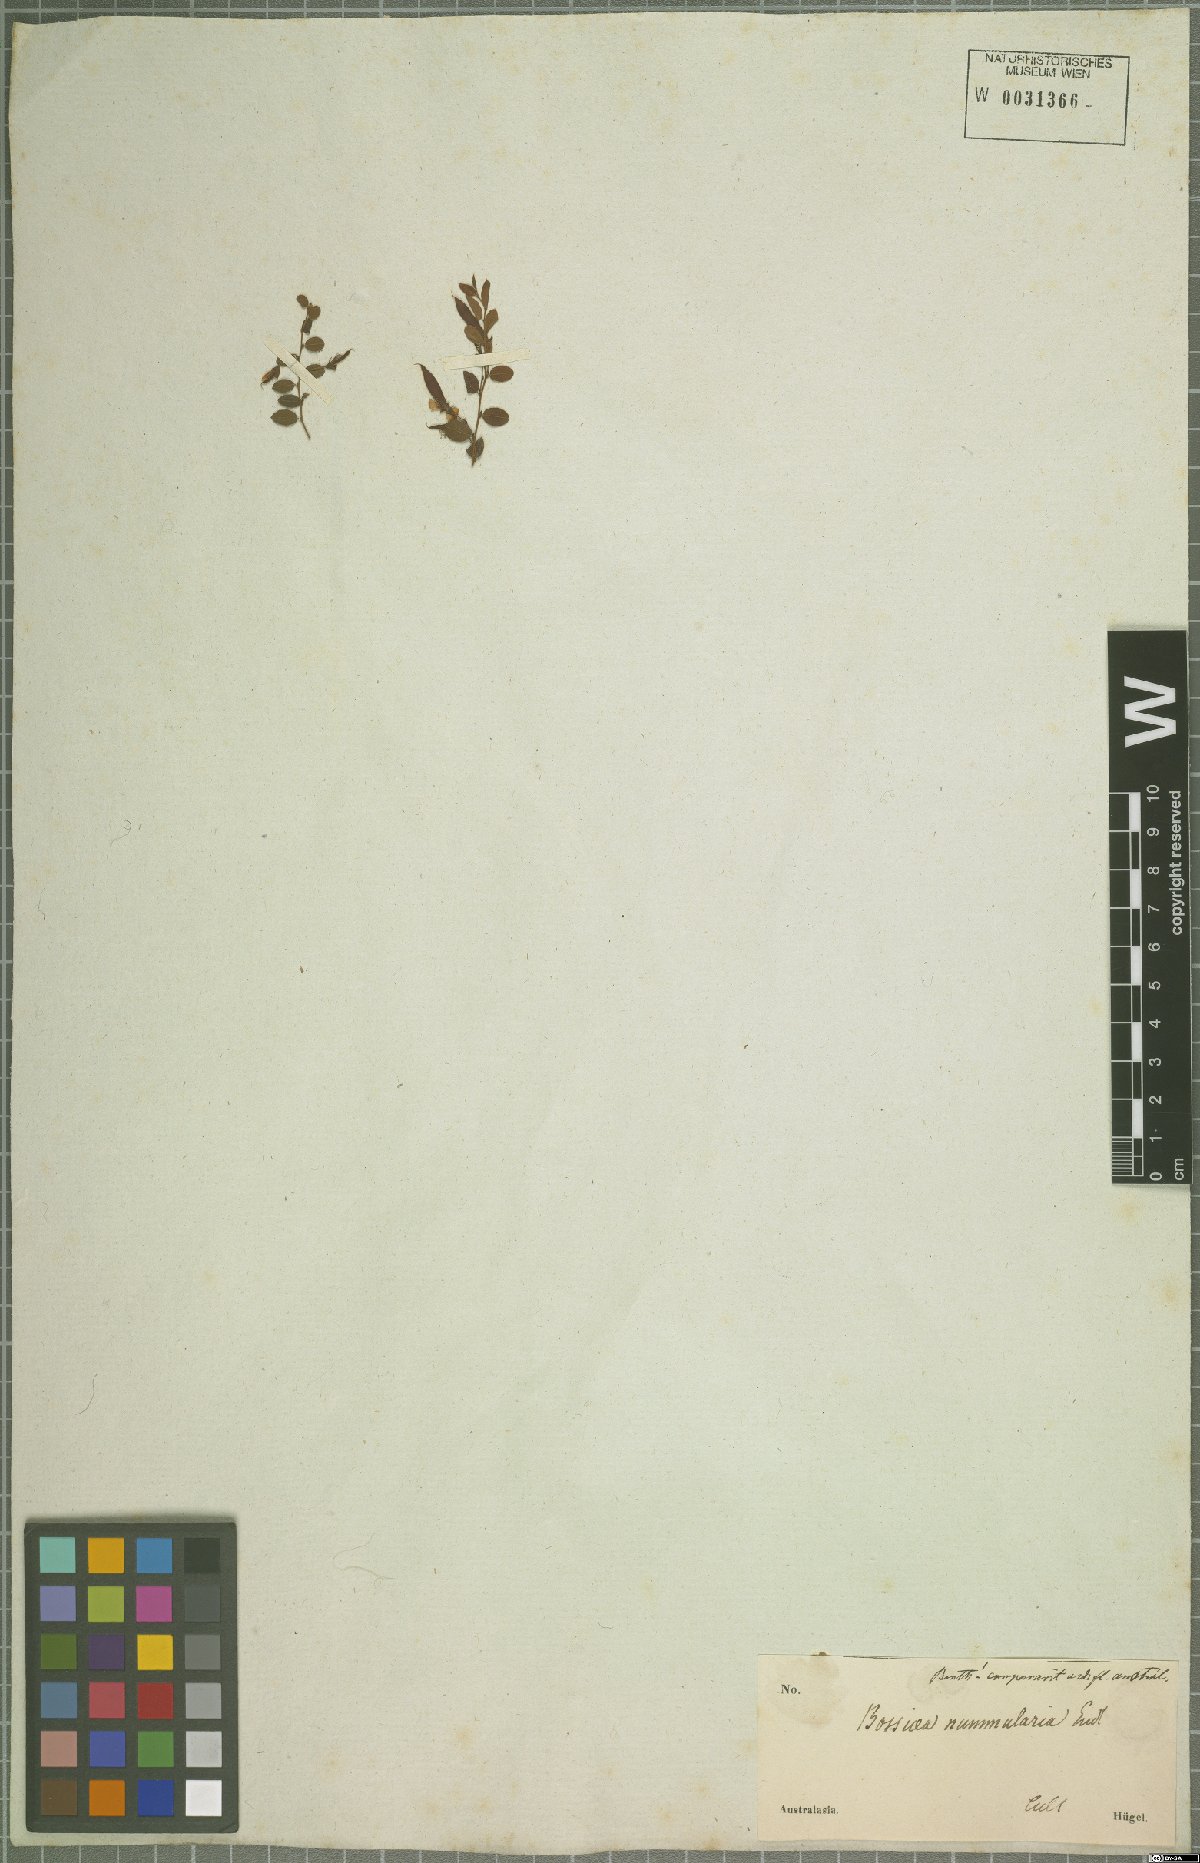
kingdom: Plantae
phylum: Tracheophyta
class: Magnoliopsida
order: Fabales
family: Fabaceae
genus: Bossiaea
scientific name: Bossiaea prostrata
